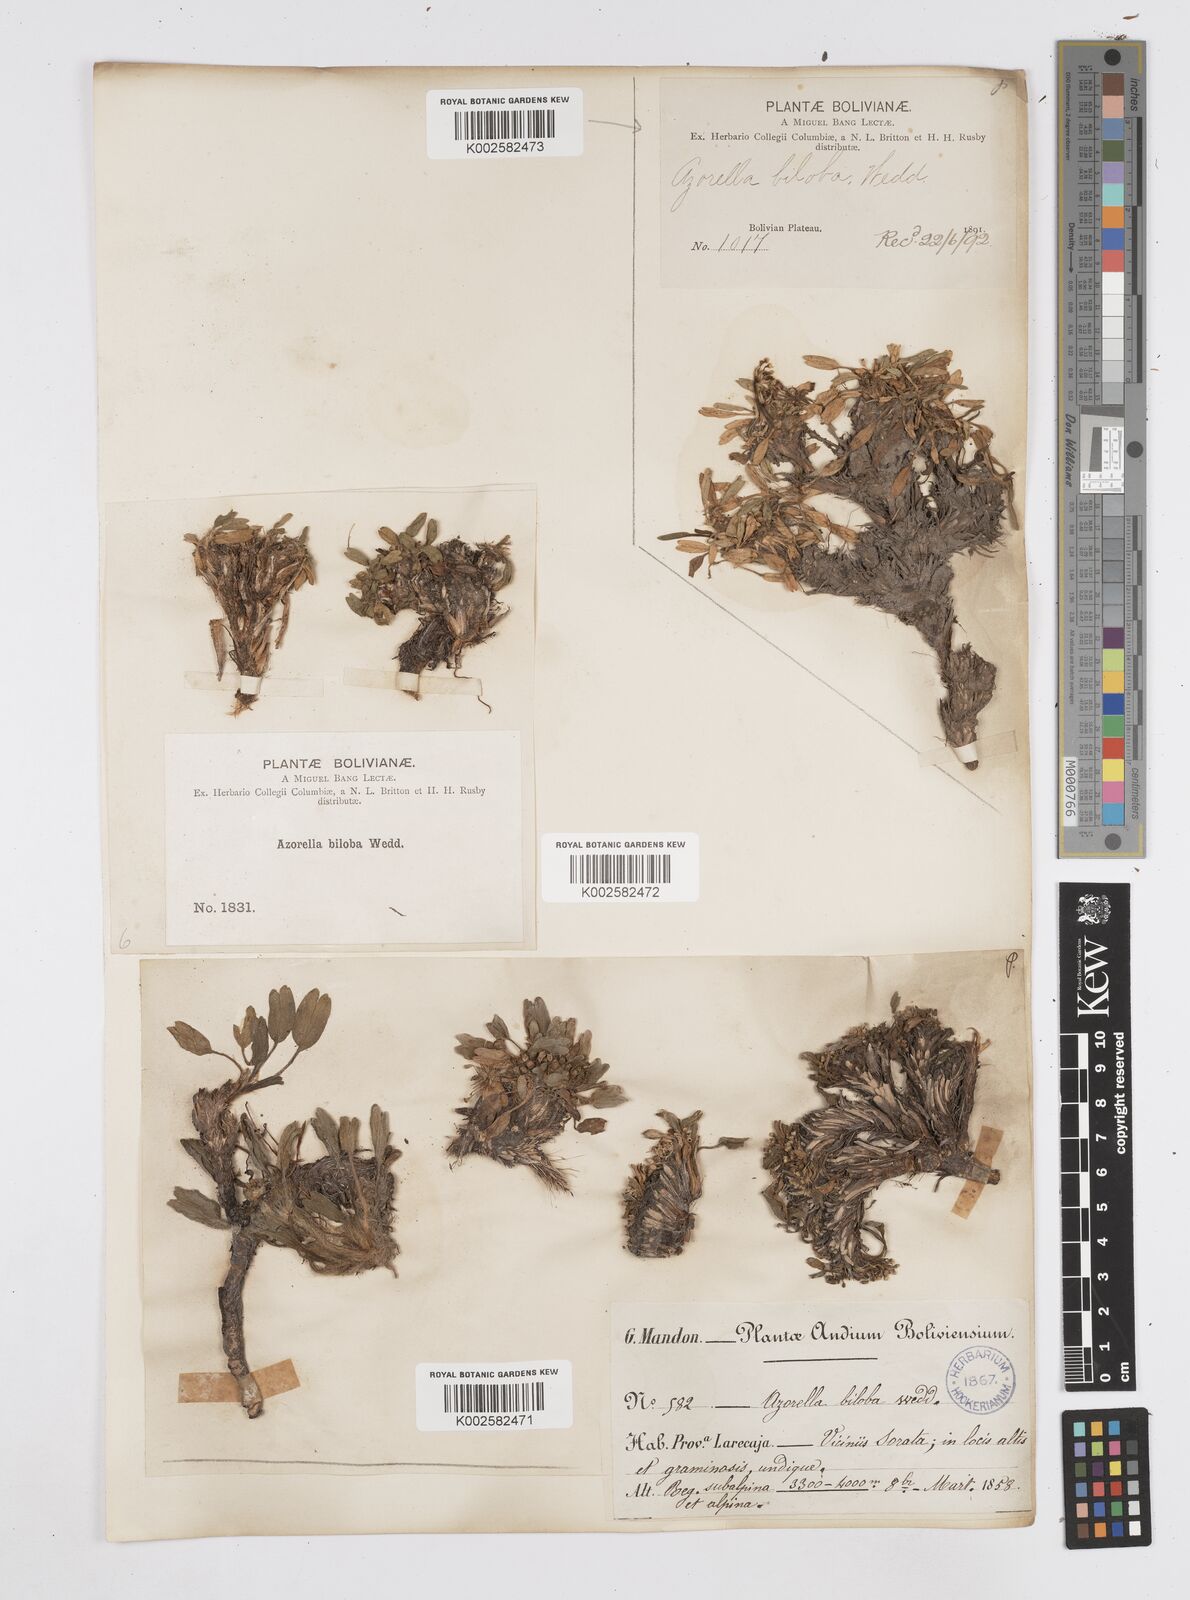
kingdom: Plantae
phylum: Tracheophyta
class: Magnoliopsida
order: Apiales
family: Apiaceae
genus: Azorella
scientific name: Azorella biloba
